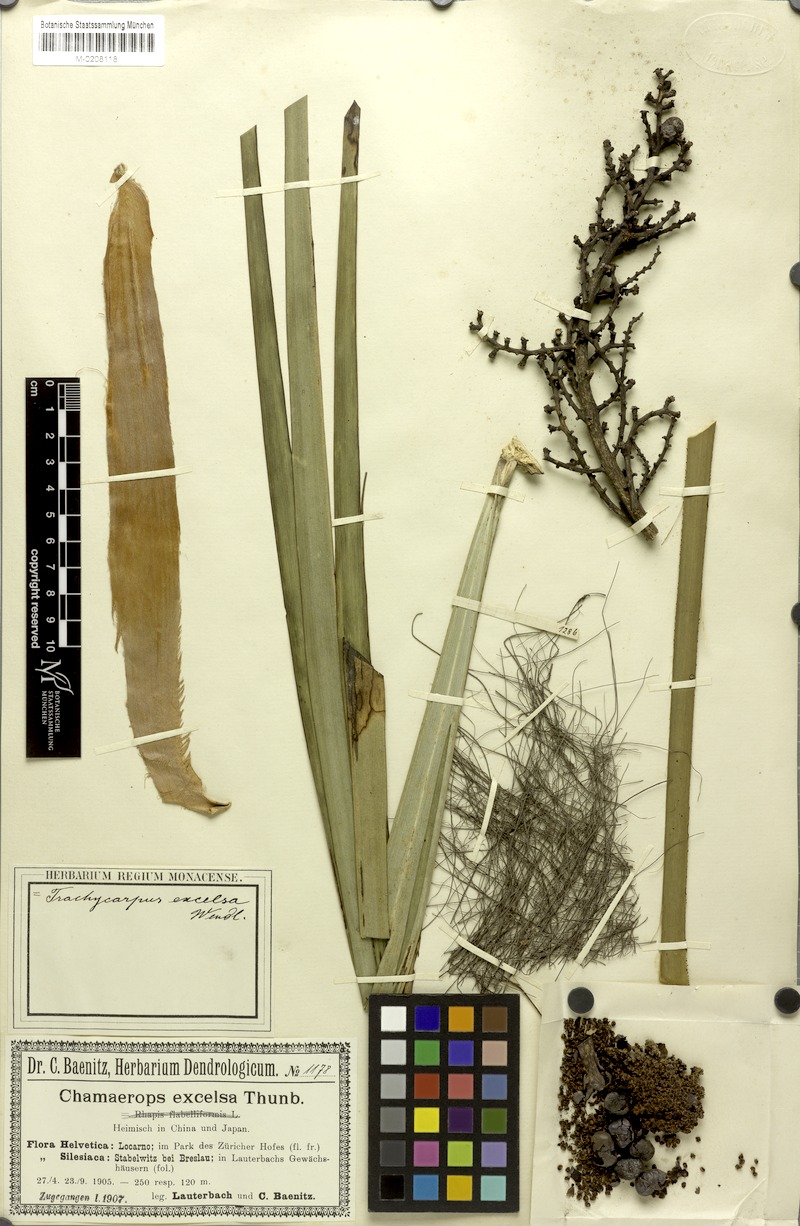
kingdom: Plantae
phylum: Tracheophyta
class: Liliopsida
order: Arecales
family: Arecaceae
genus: Trachycarpus
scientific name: Trachycarpus fortunei
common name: Chusan palm
